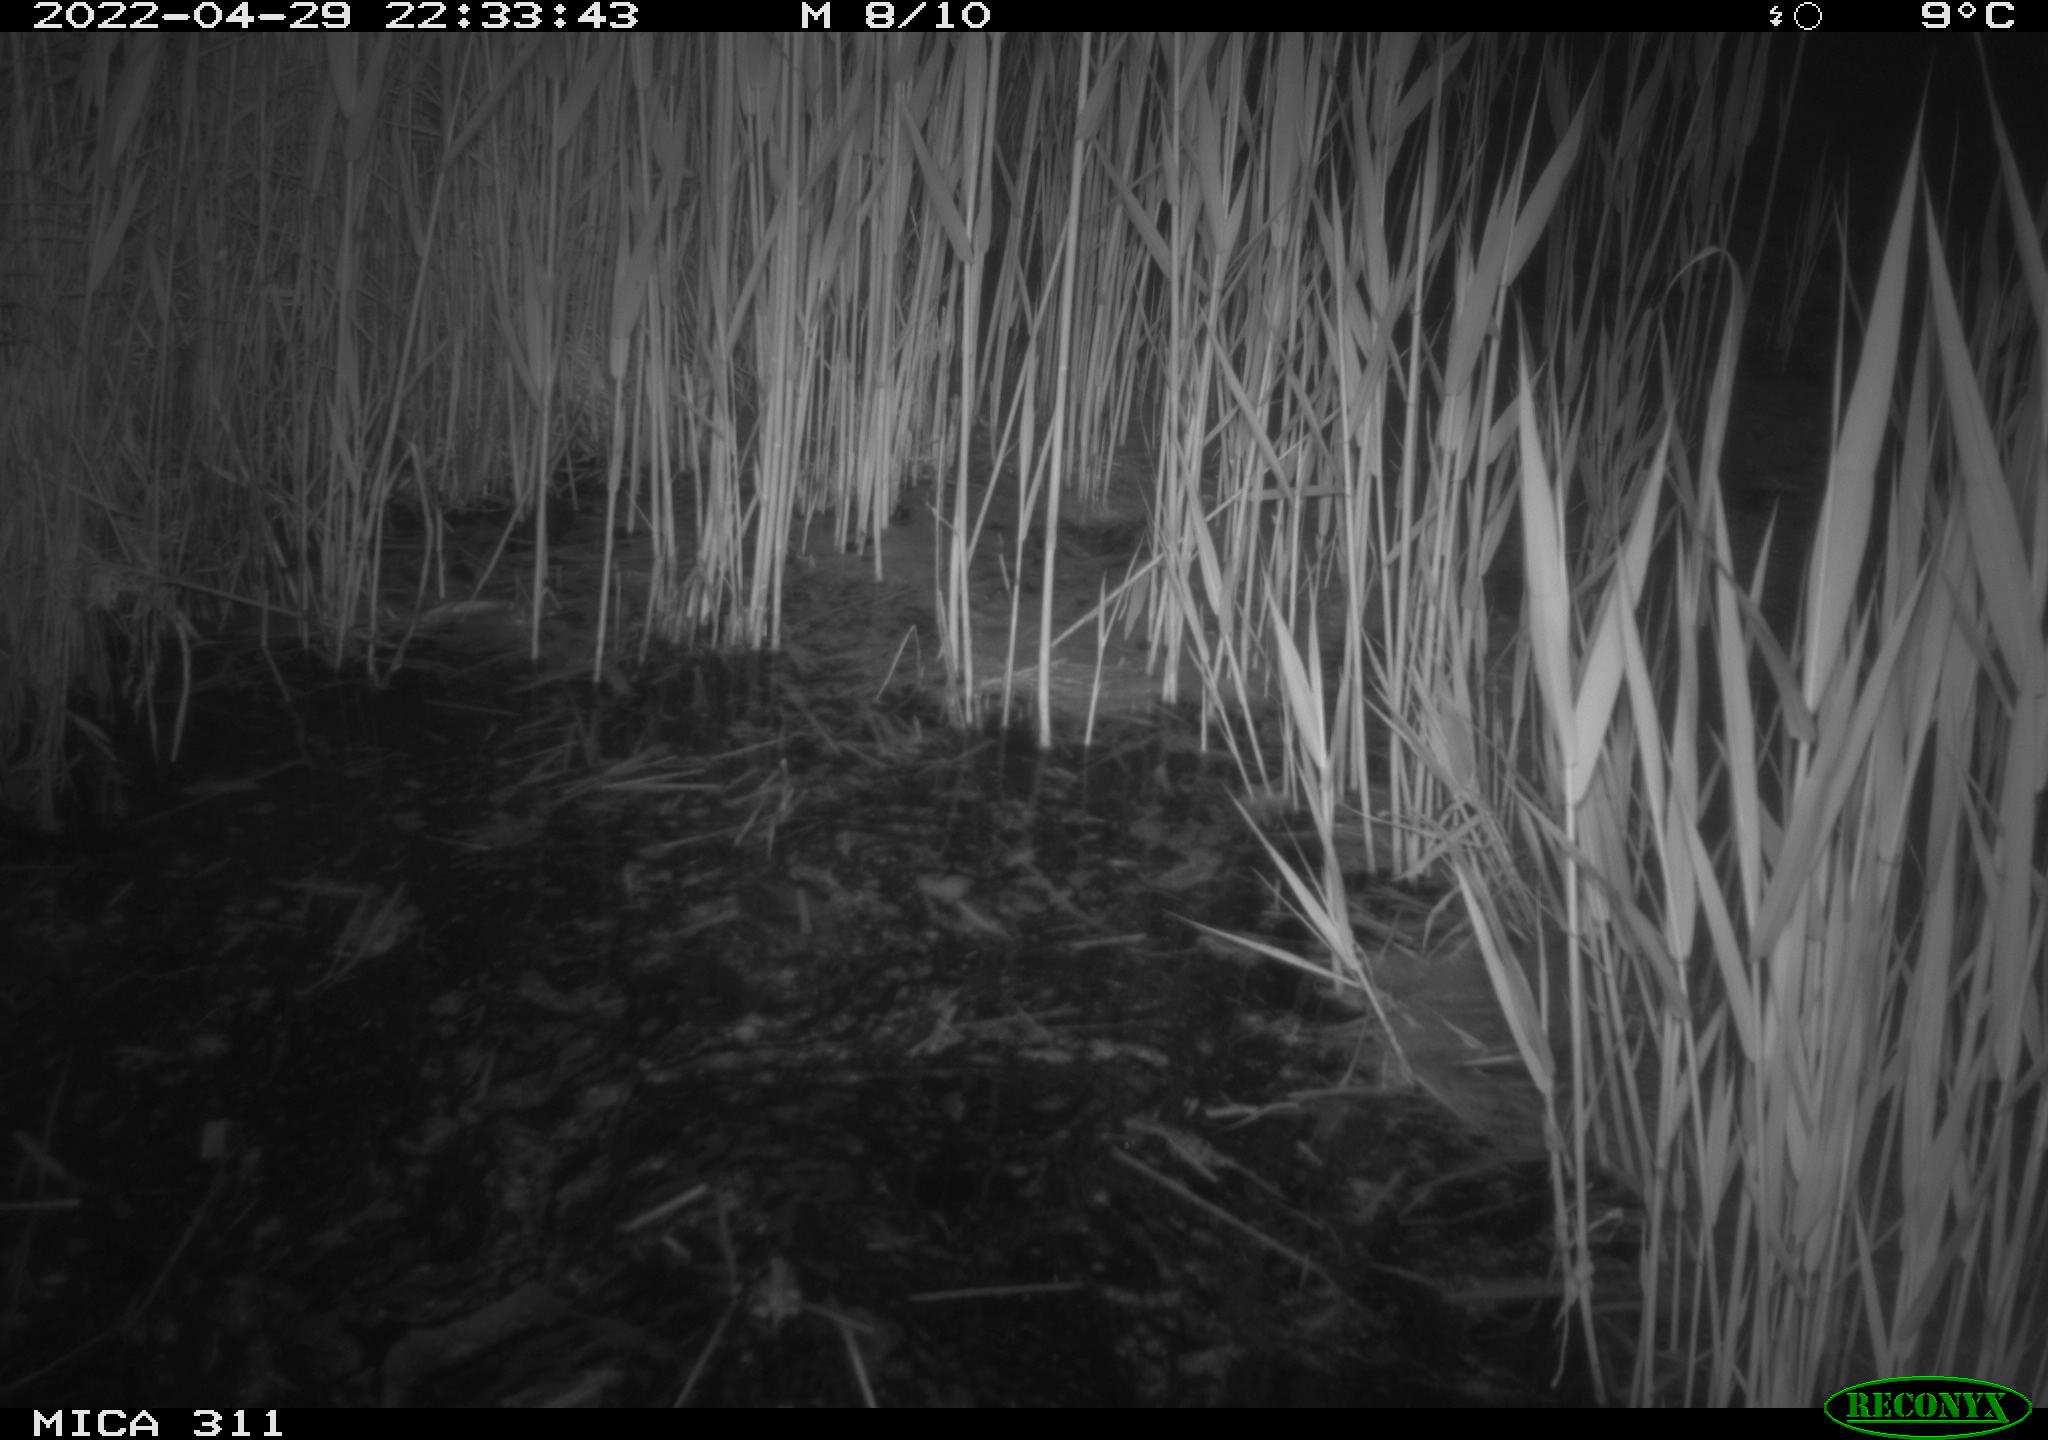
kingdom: Animalia
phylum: Chordata
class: Aves
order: Anseriformes
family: Anatidae
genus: Anas
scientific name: Anas platyrhynchos
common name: Mallard
